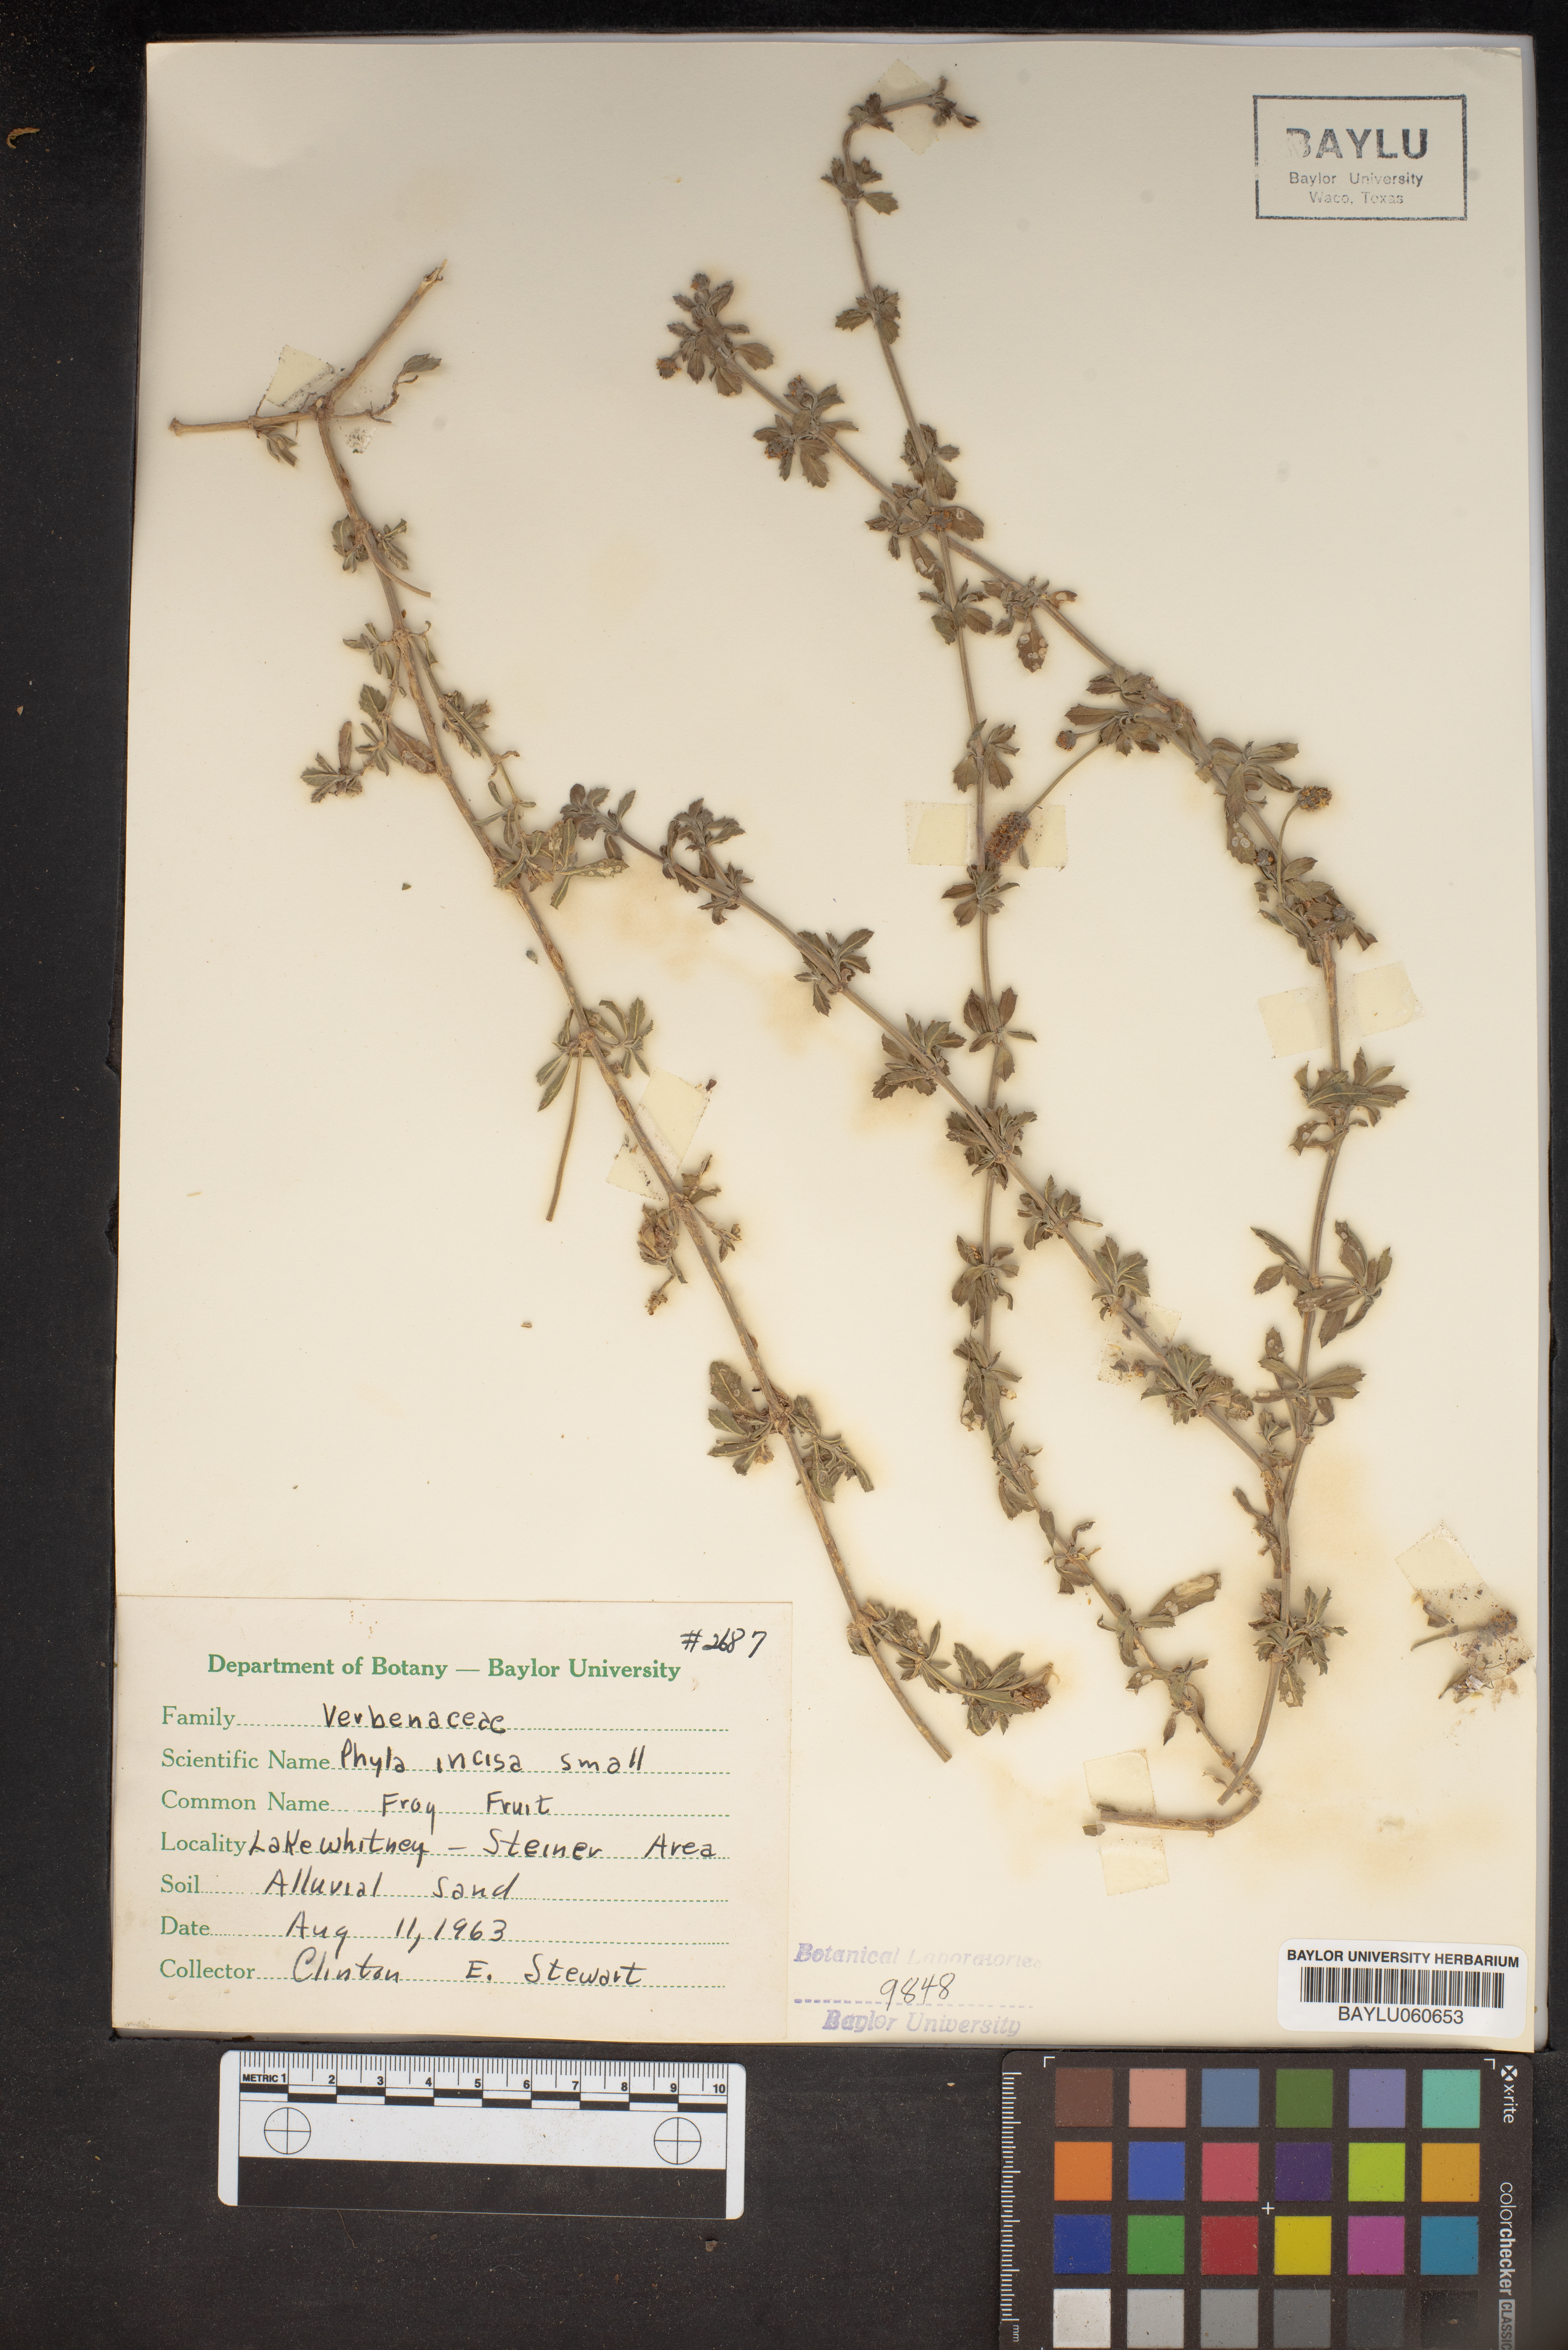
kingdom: Plantae
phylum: Tracheophyta
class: Magnoliopsida
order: Lamiales
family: Verbenaceae
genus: Phyla
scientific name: Phyla nodiflora
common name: Frogfruit
